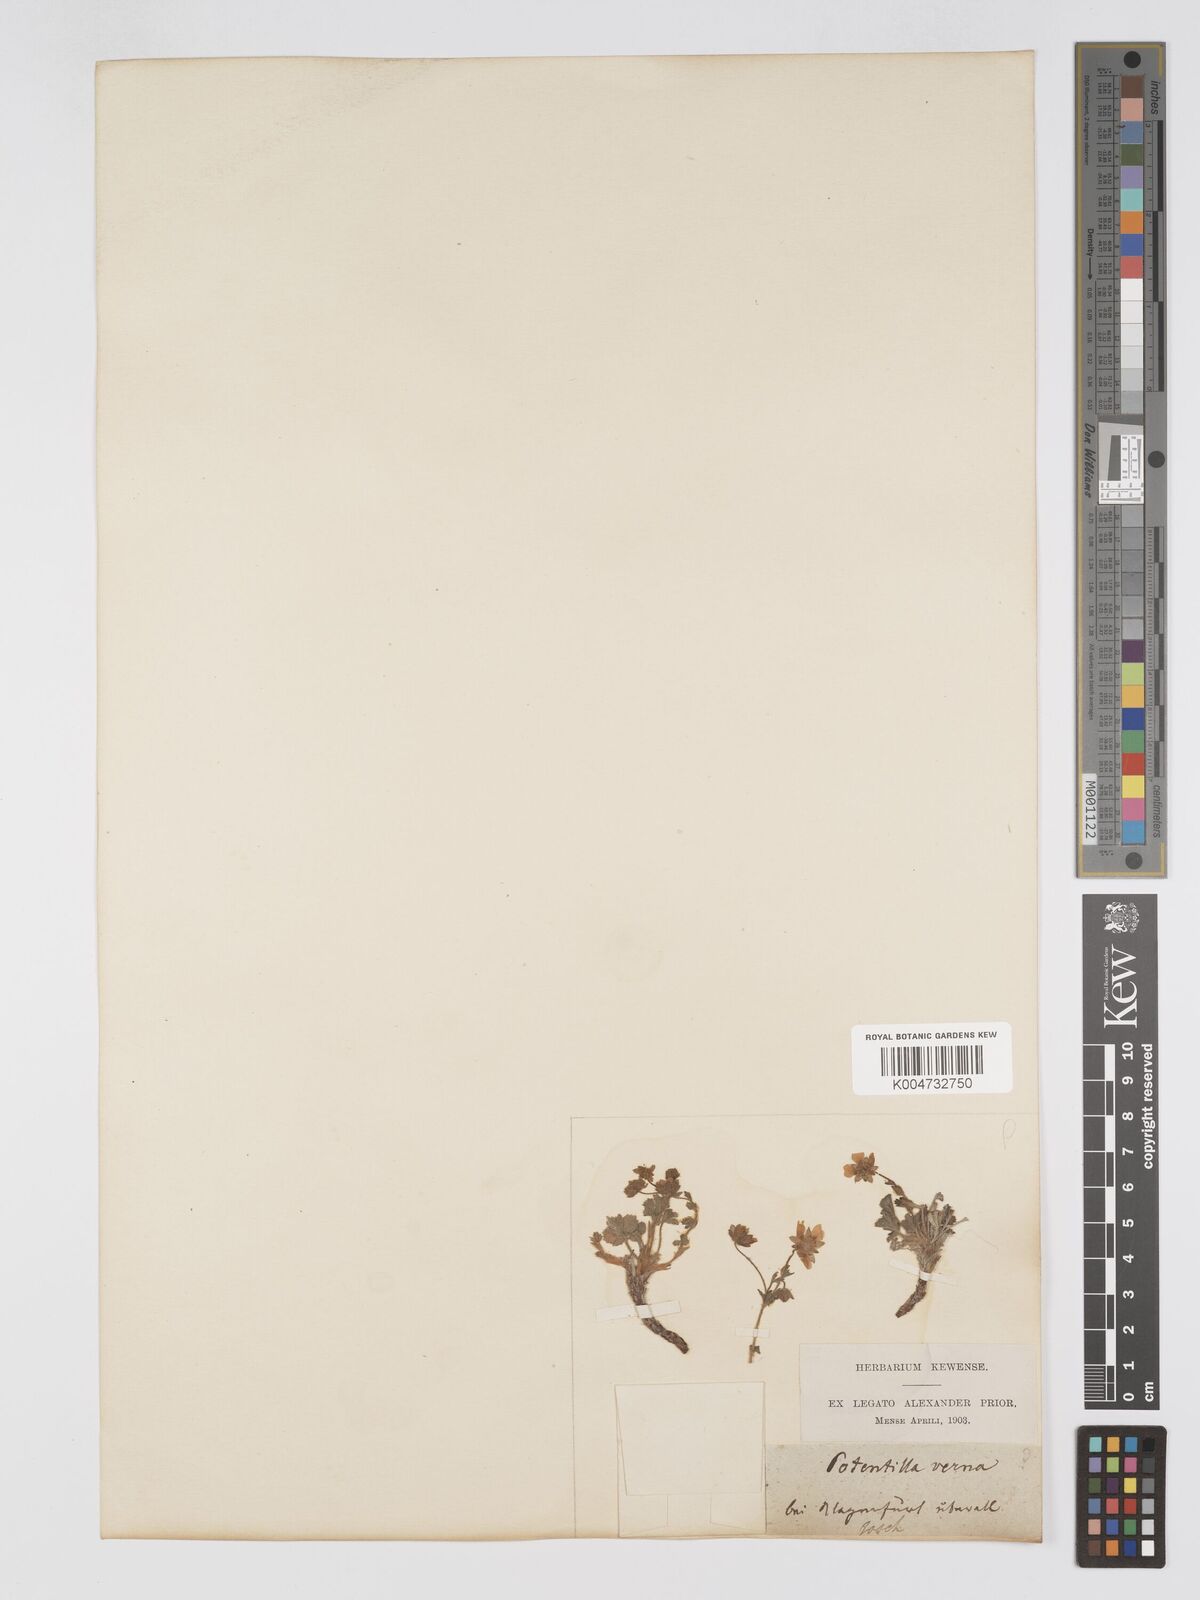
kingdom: Plantae
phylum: Tracheophyta
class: Magnoliopsida
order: Rosales
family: Rosaceae
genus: Potentilla
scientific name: Potentilla
